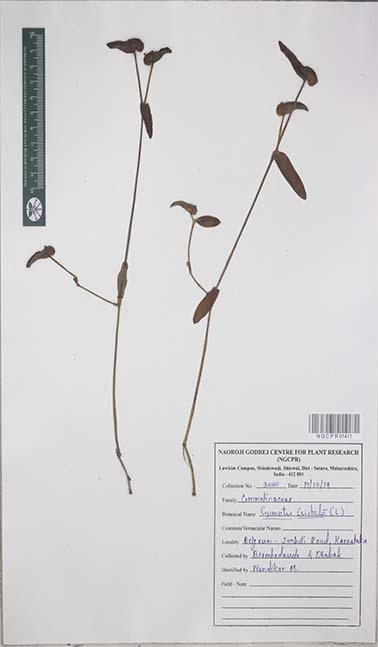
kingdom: Plantae
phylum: Tracheophyta
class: Liliopsida
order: Commelinales
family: Commelinaceae
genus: Cyanotis
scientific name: Cyanotis cristata
